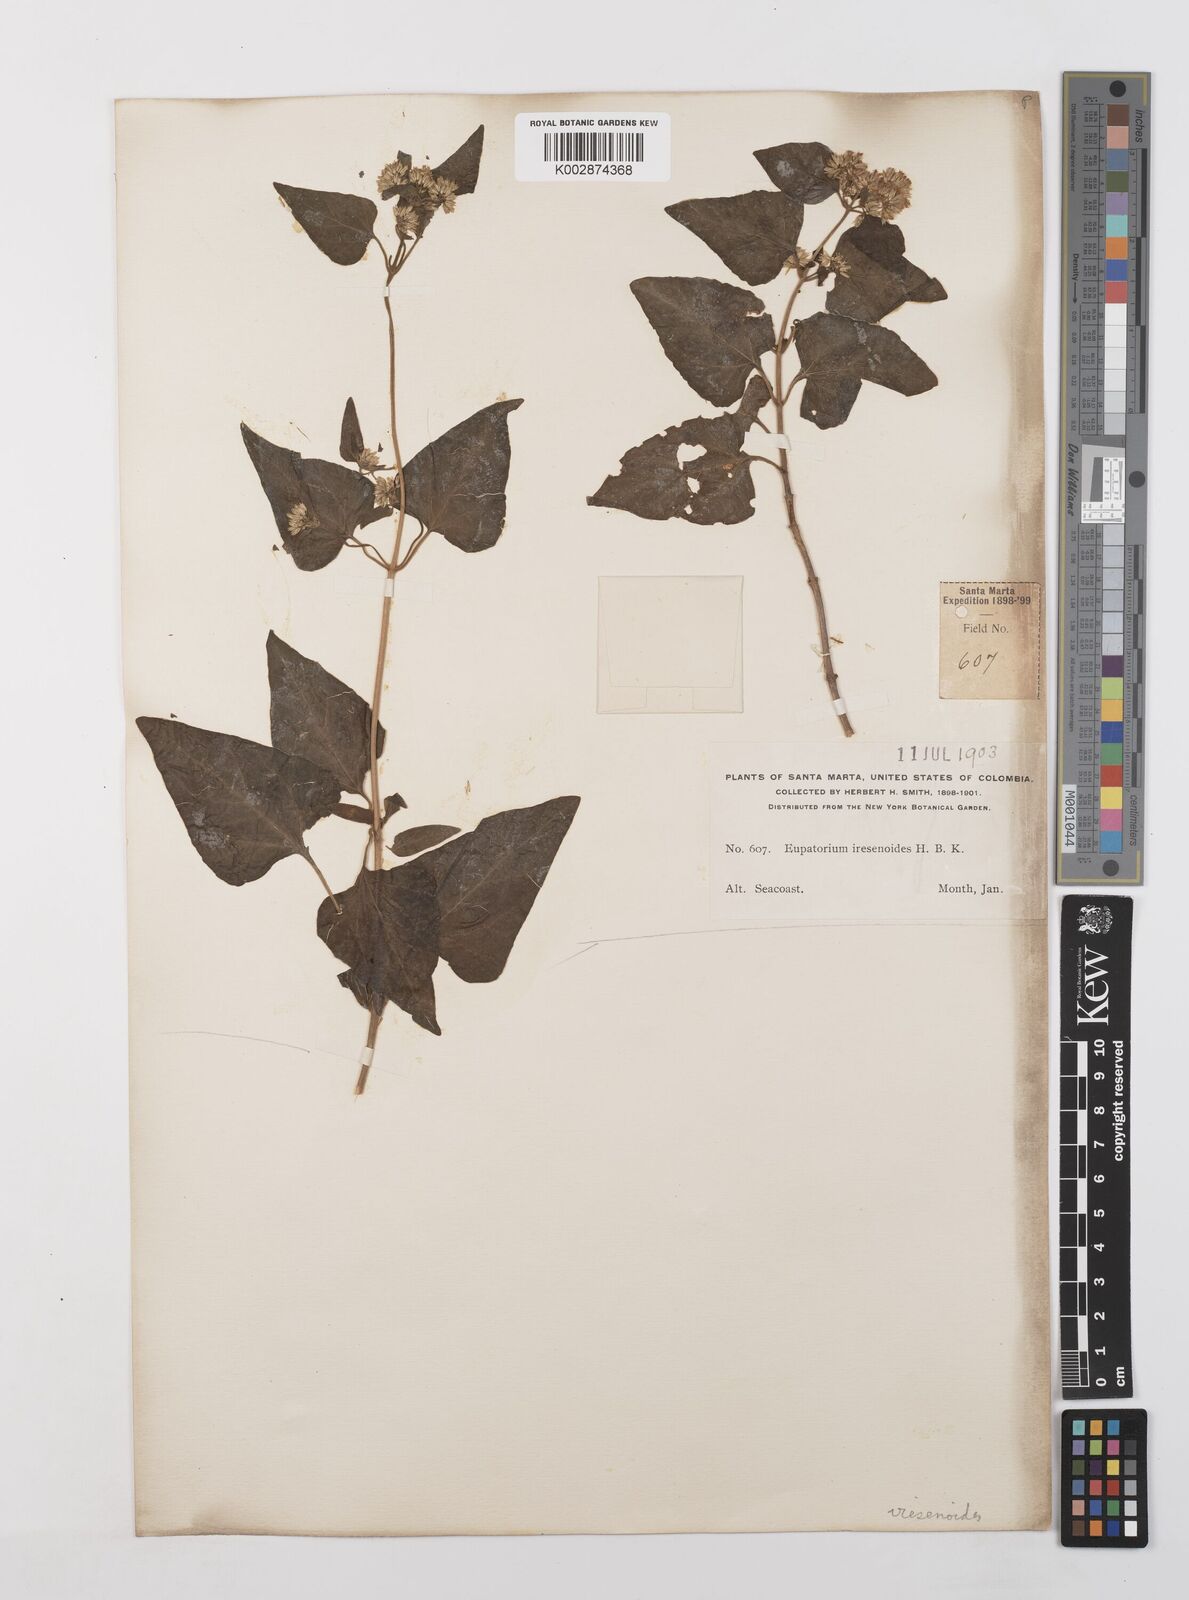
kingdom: Plantae
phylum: Tracheophyta
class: Magnoliopsida
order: Asterales
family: Asteraceae
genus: Condylidium
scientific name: Condylidium iresinoides
